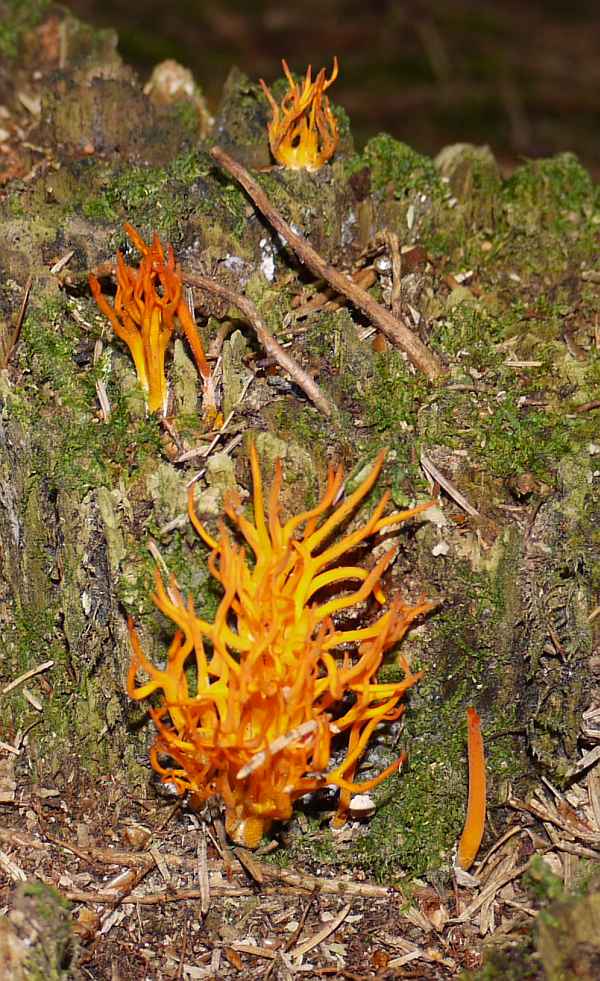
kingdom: Fungi
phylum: Basidiomycota
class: Dacrymycetes
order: Dacrymycetales
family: Dacrymycetaceae
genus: Calocera
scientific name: Calocera viscosa
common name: almindelig guldgaffel
